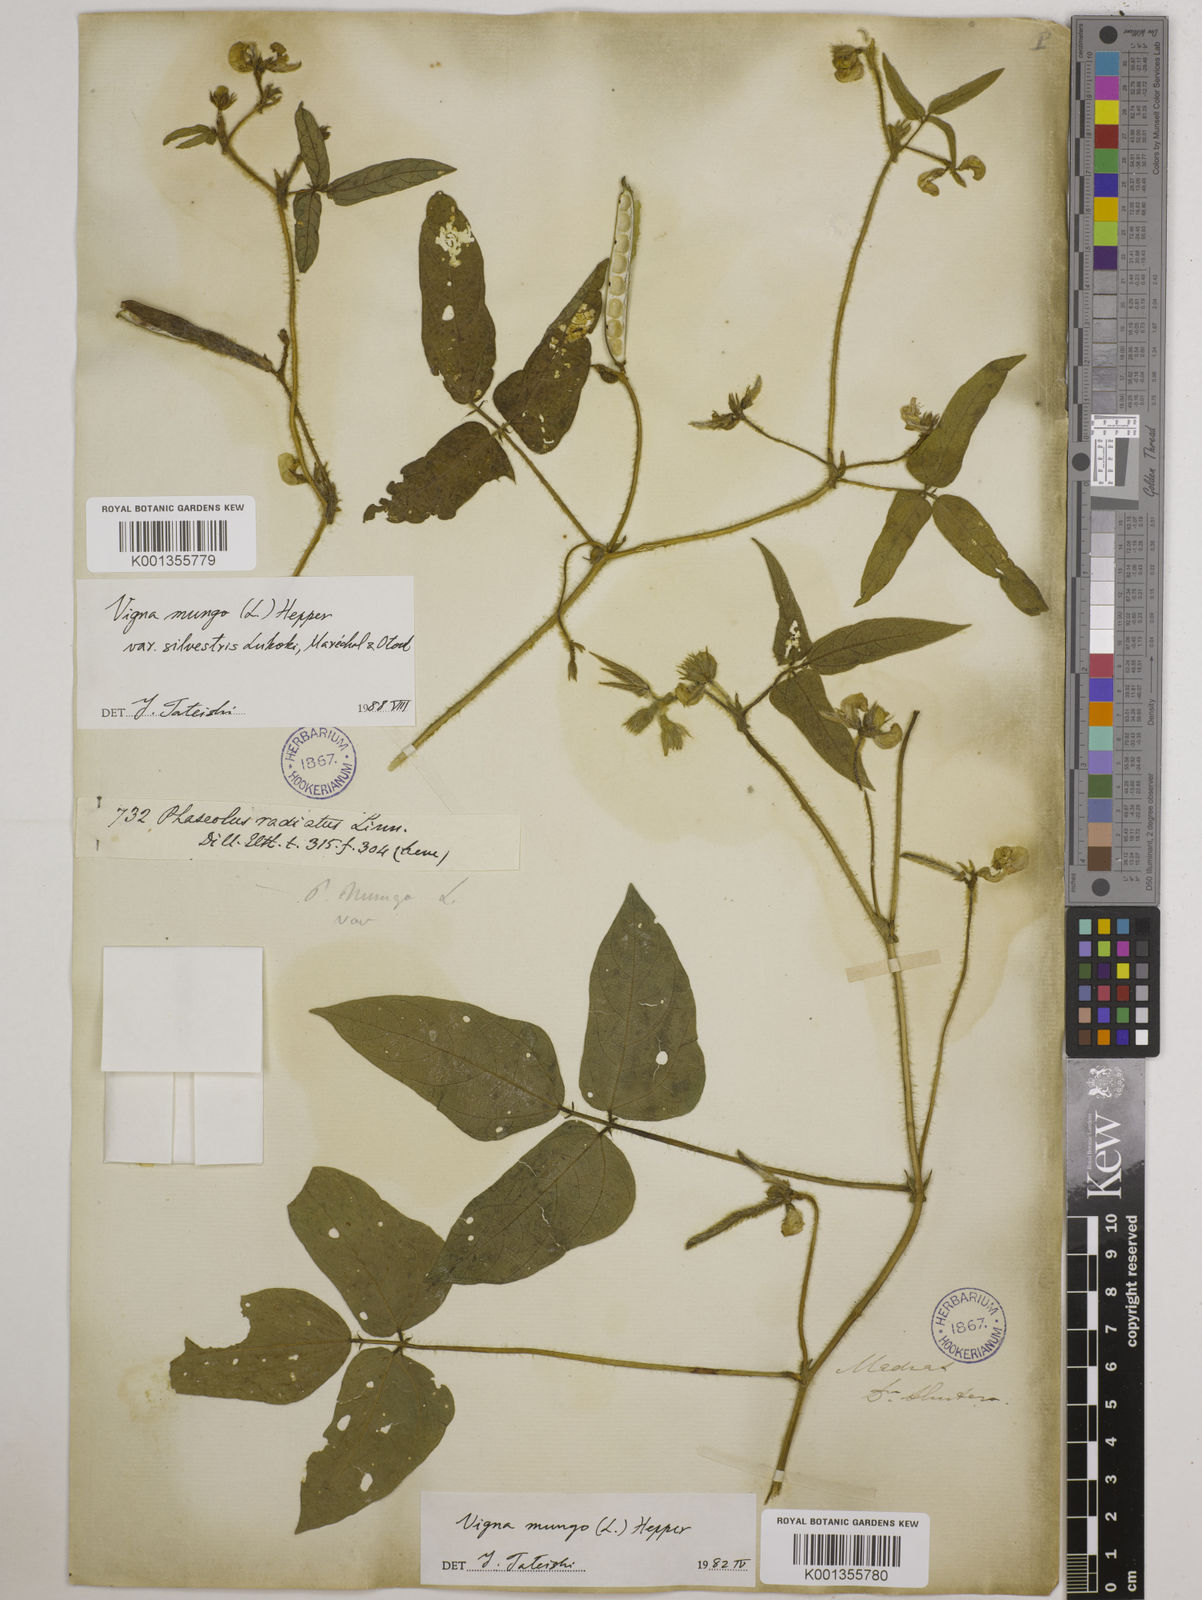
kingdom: Plantae
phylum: Tracheophyta
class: Magnoliopsida
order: Fabales
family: Fabaceae
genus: Vigna
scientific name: Vigna mungo
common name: Black gram
